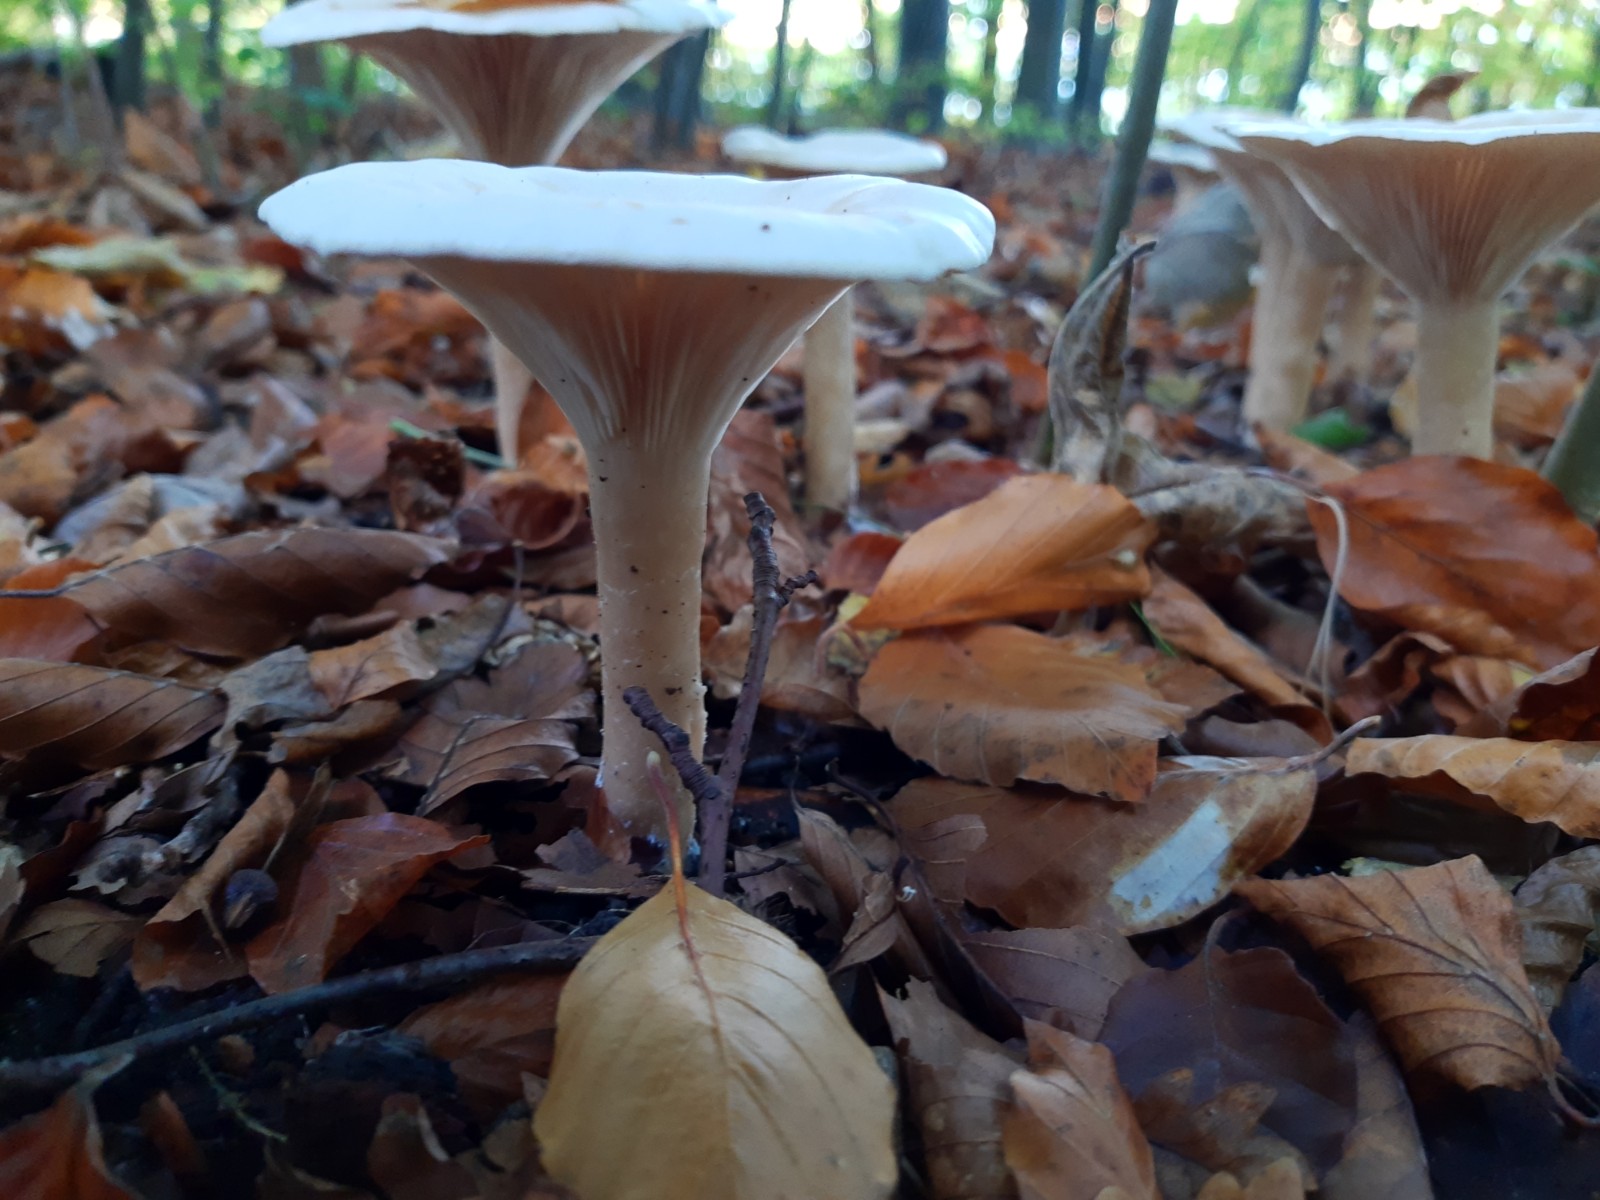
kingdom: Fungi
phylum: Basidiomycota
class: Agaricomycetes
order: Agaricales
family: Tricholomataceae
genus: Infundibulicybe
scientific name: Infundibulicybe geotropa
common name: stor tragthat
